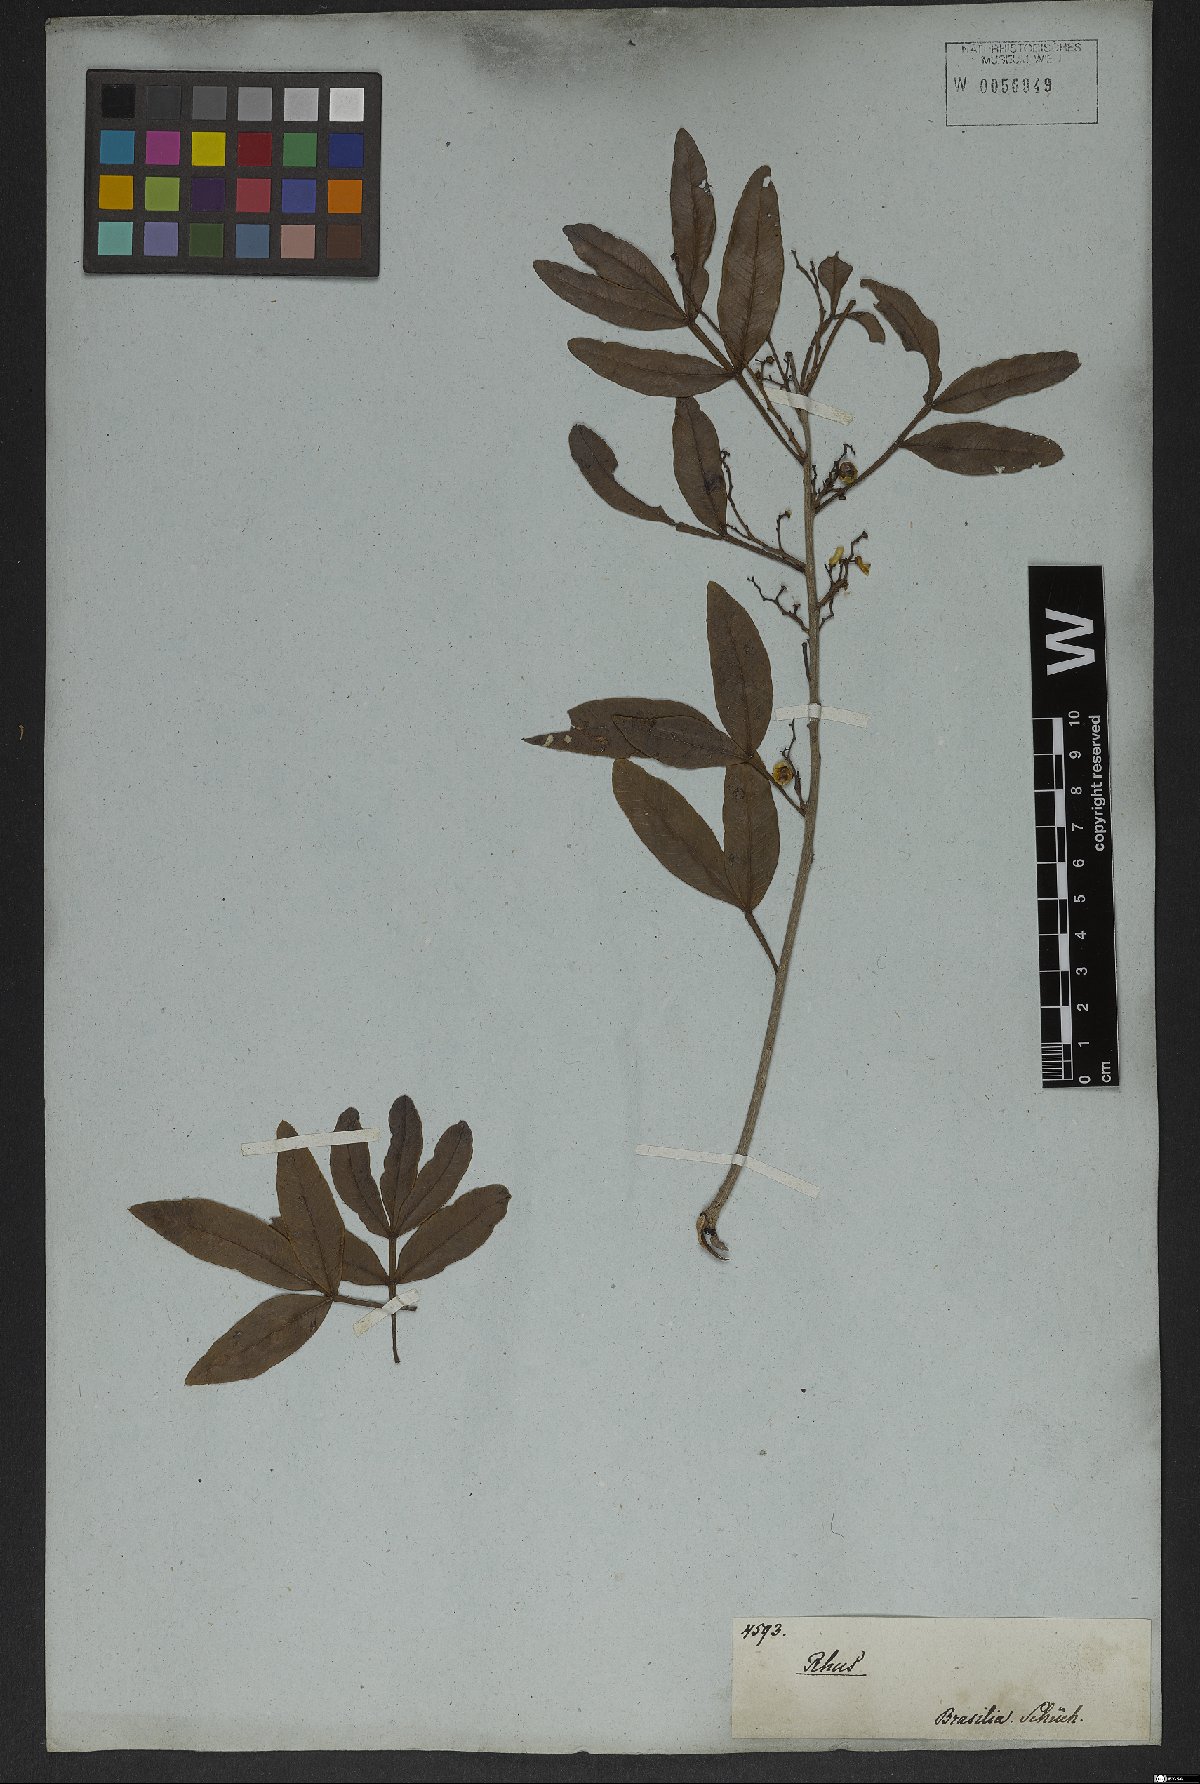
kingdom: Plantae
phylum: Tracheophyta
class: Magnoliopsida
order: Sapindales
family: Anacardiaceae
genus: Lithraea
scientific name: Lithraea brasiliensis
